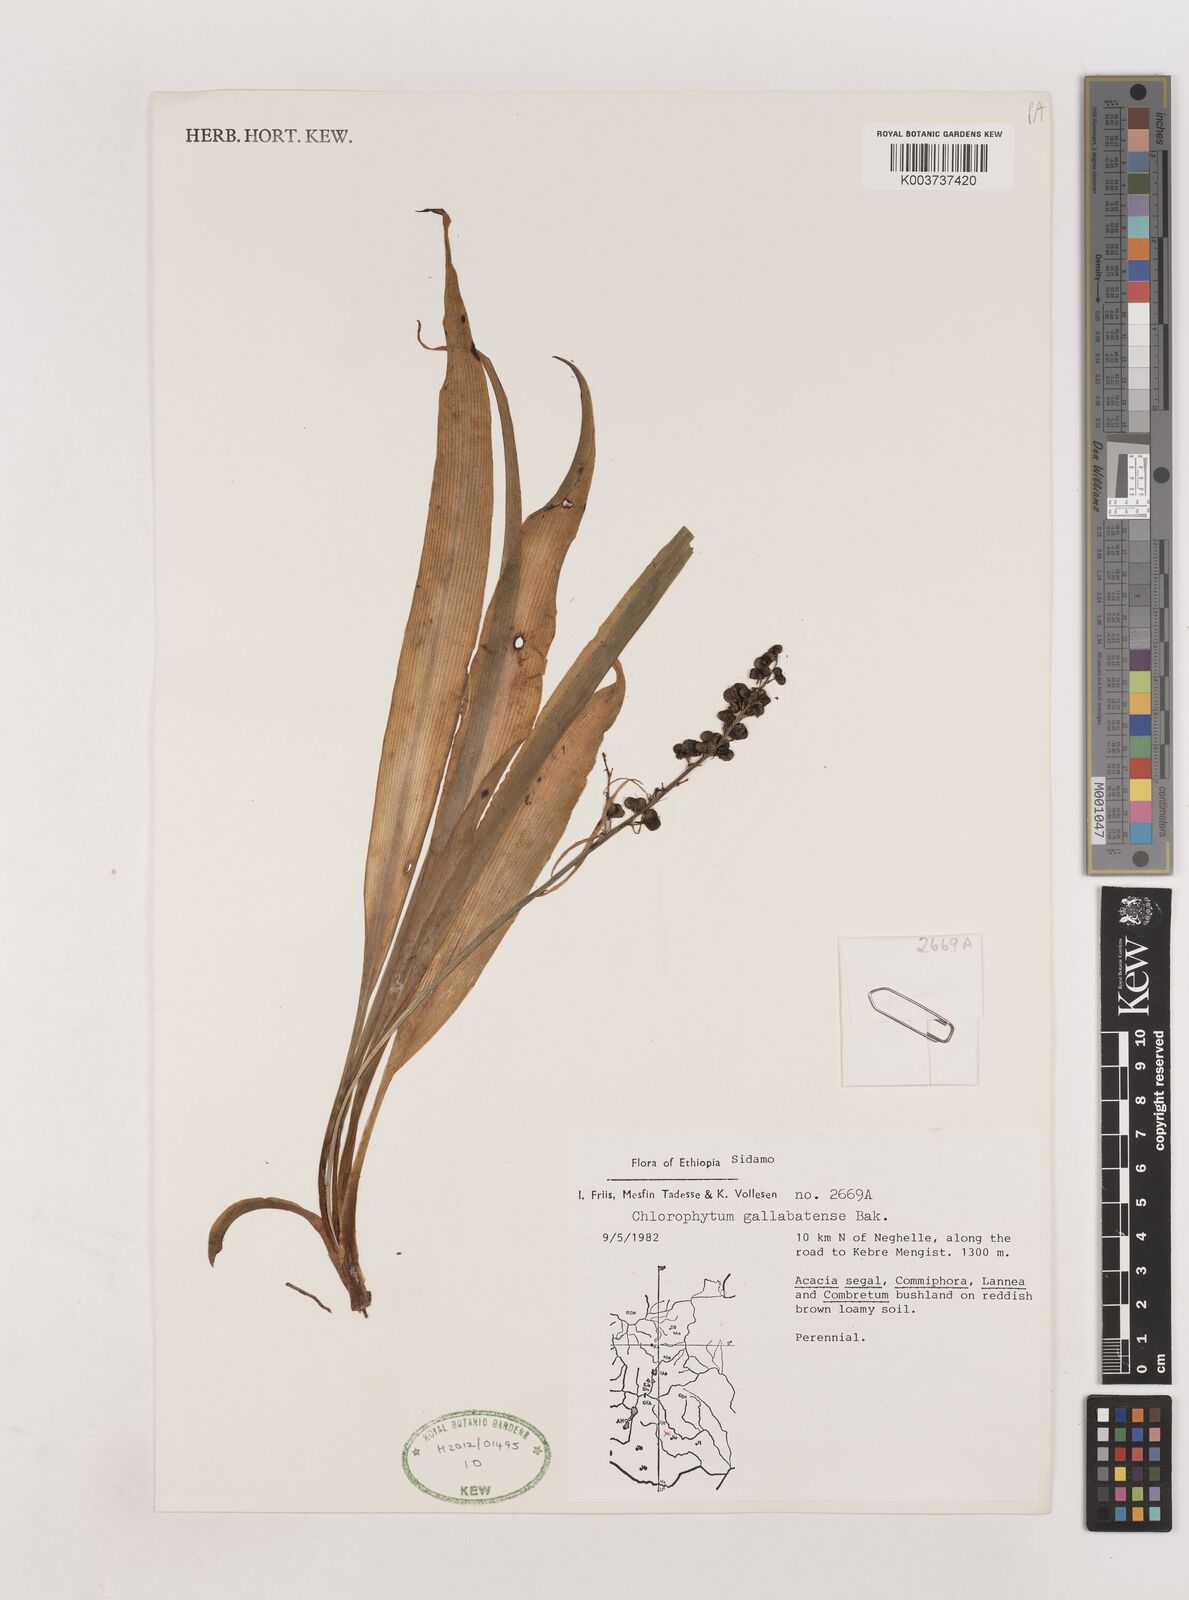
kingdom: Plantae
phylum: Tracheophyta
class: Liliopsida
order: Asparagales
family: Asparagaceae
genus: Chlorophytum
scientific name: Chlorophytum gallabatense
